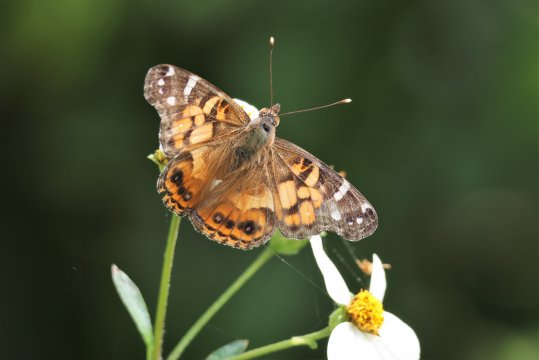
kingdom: Animalia
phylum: Arthropoda
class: Insecta
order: Lepidoptera
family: Nymphalidae
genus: Vanessa
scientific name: Vanessa virginiensis
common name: American Lady
